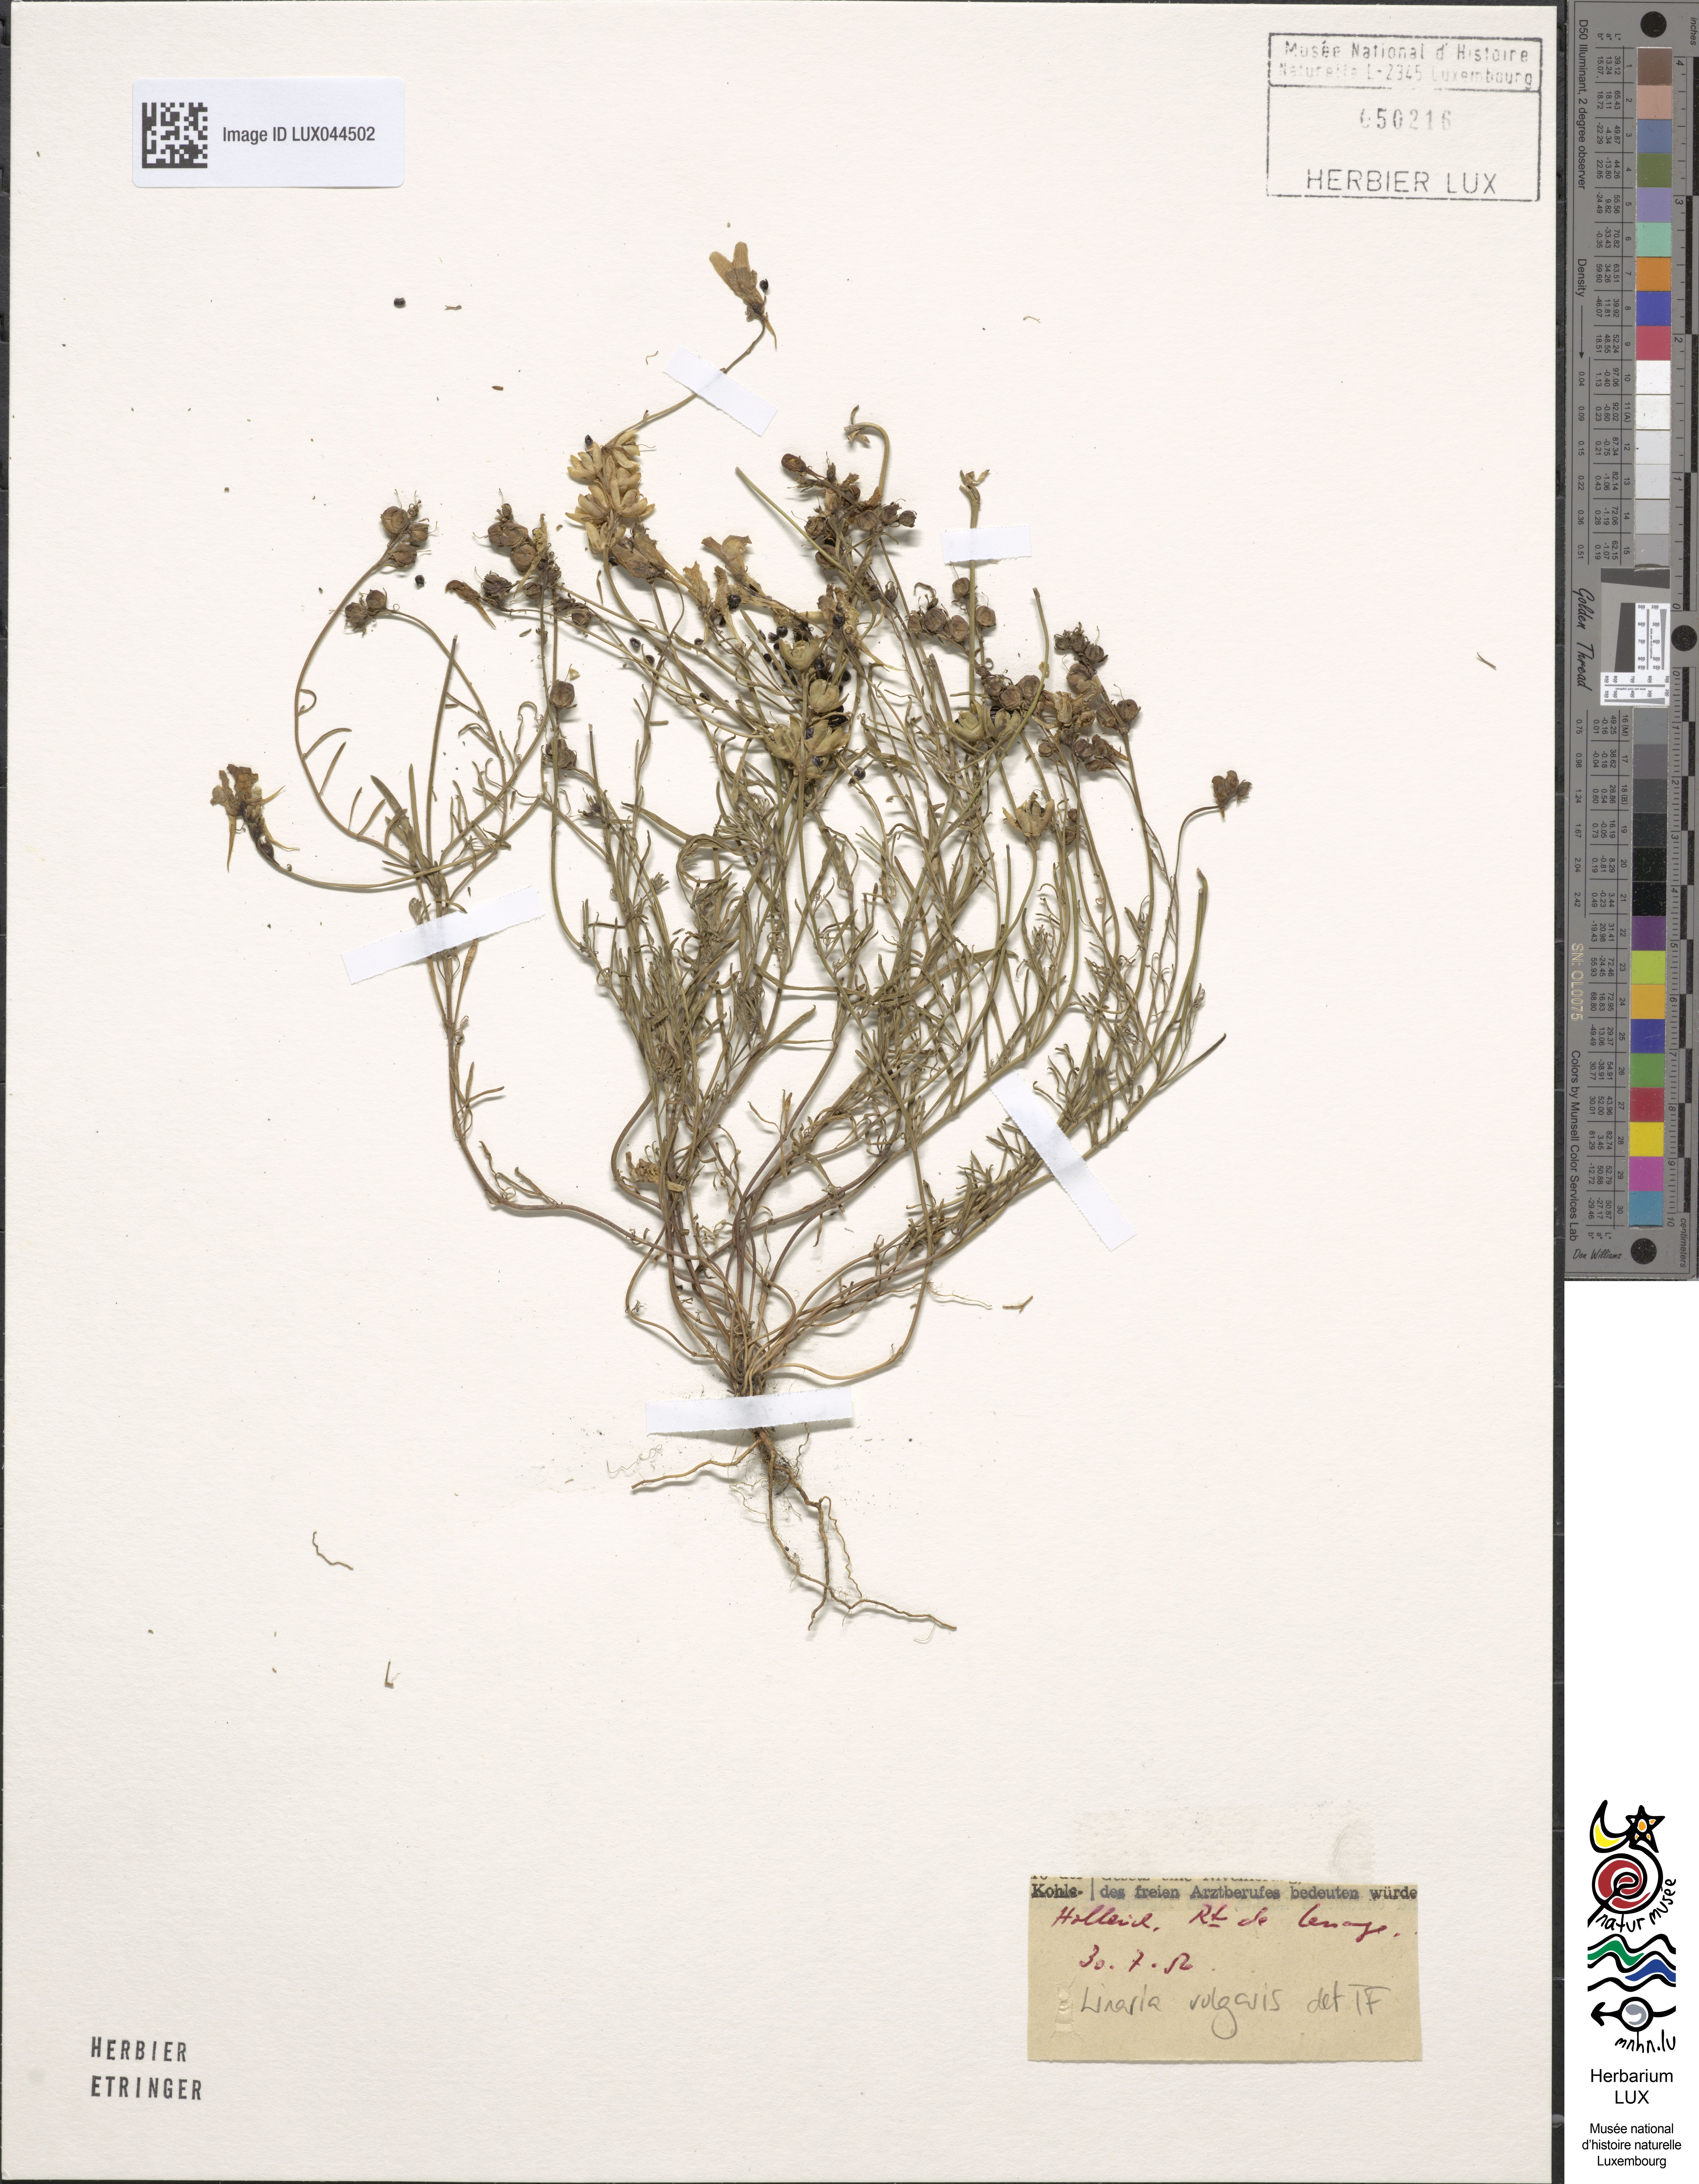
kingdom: Plantae
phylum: Tracheophyta
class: Magnoliopsida
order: Lamiales
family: Plantaginaceae
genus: Linaria
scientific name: Linaria vulgaris
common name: Butter and eggs
